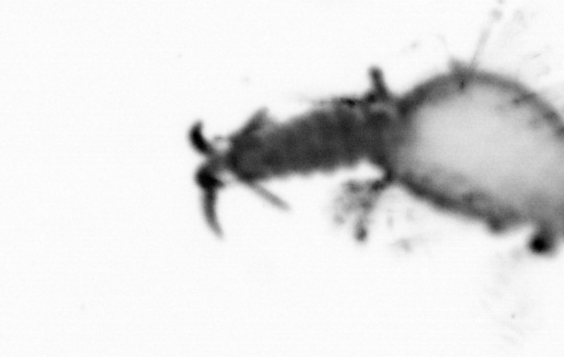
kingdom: Animalia
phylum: Annelida
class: Polychaeta
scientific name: Polychaeta
